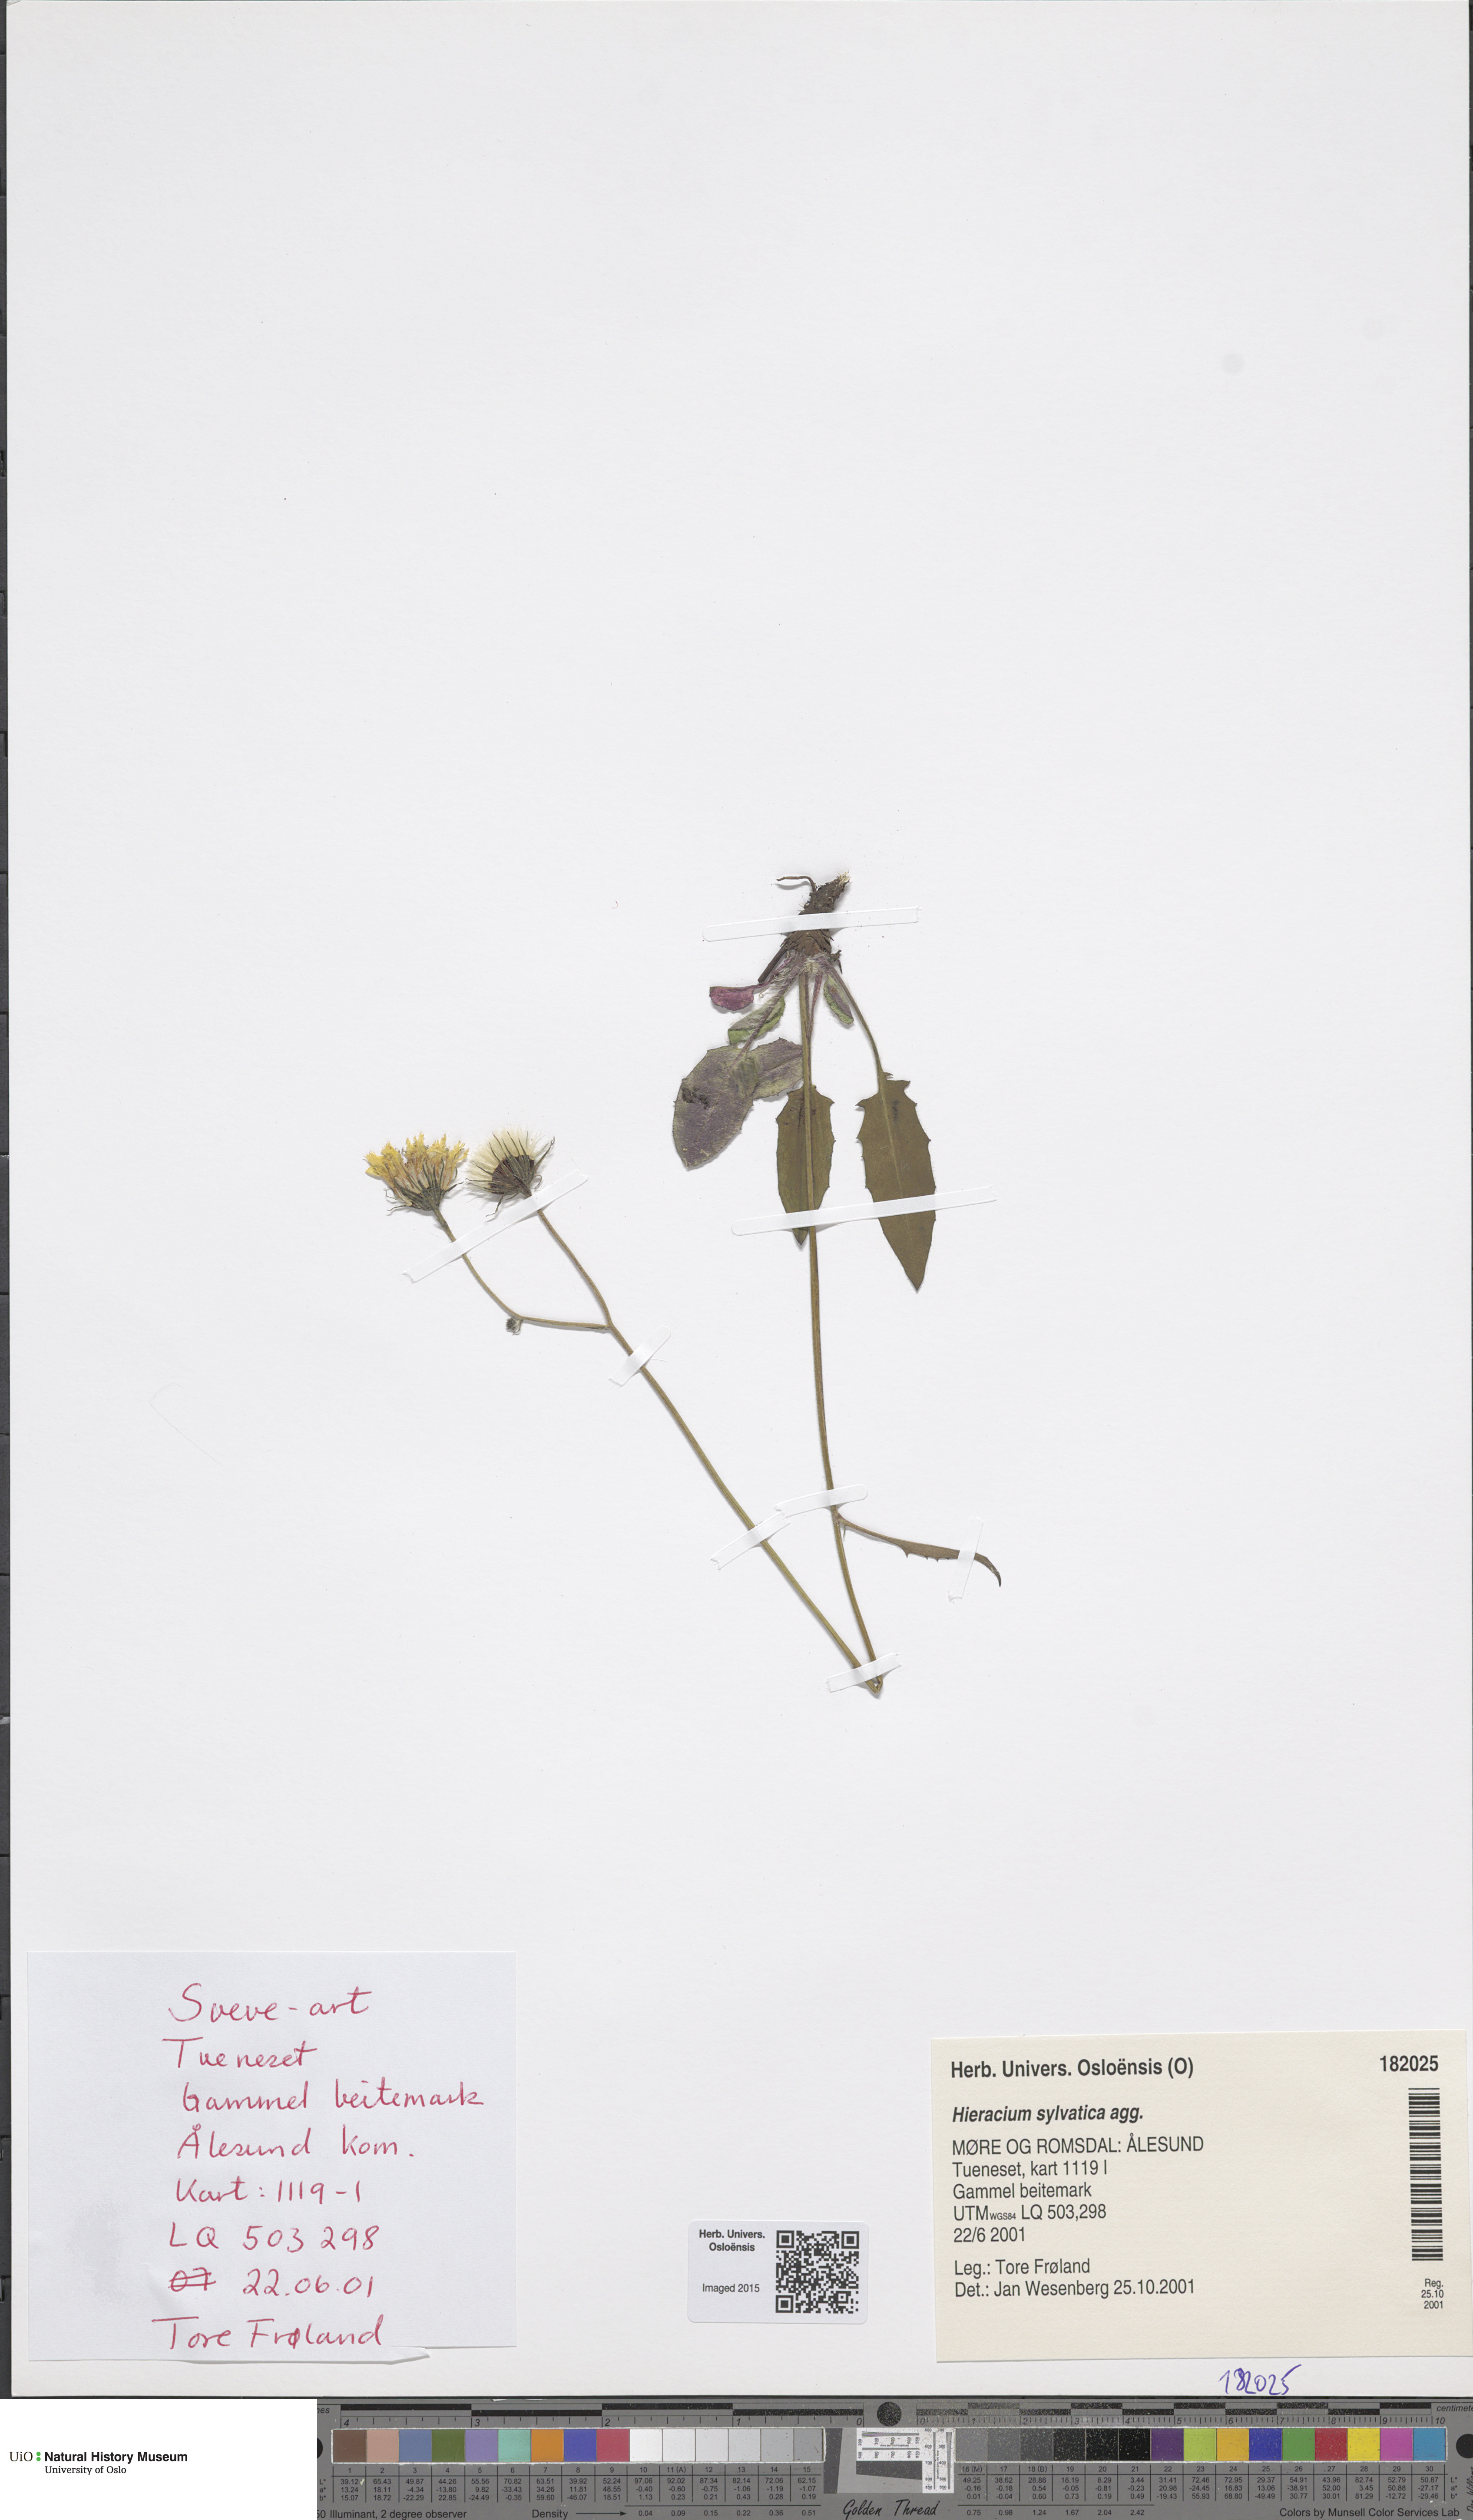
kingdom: Plantae
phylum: Tracheophyta
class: Magnoliopsida
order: Asterales
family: Asteraceae
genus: Hieracium
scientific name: Hieracium
